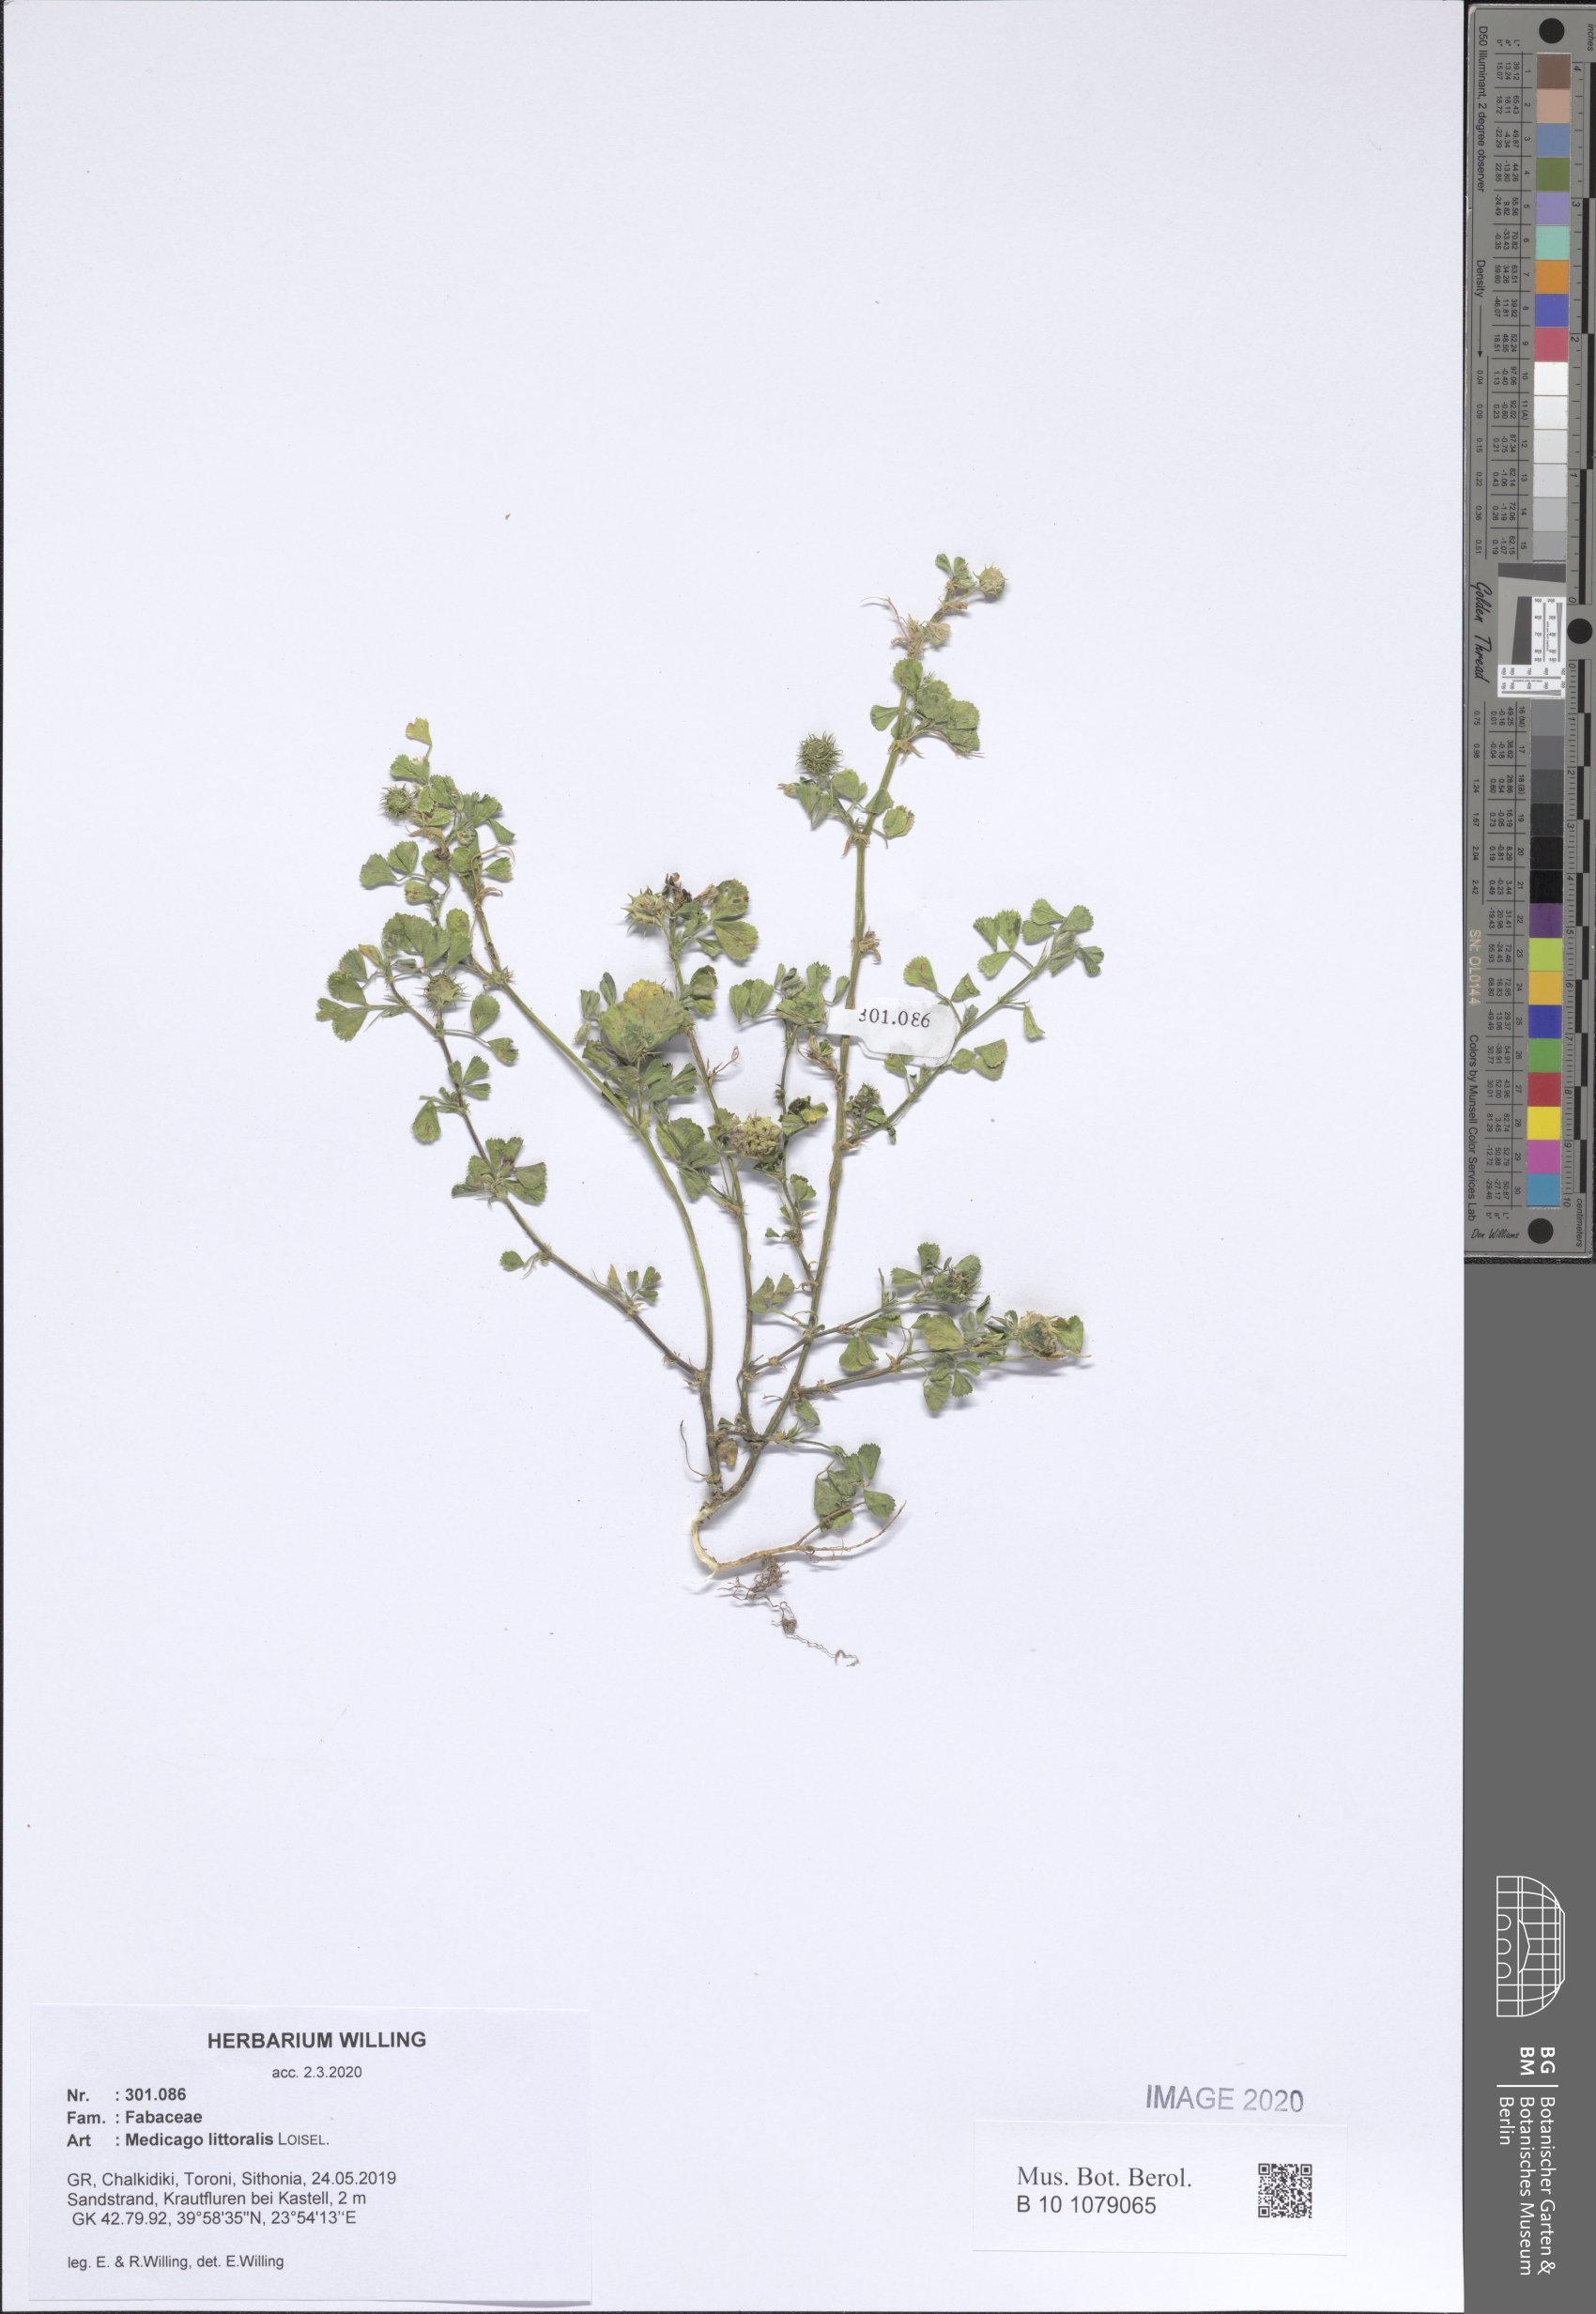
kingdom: Plantae
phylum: Tracheophyta
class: Magnoliopsida
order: Fabales
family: Fabaceae
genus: Medicago
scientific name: Medicago littoralis
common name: Shore medick
